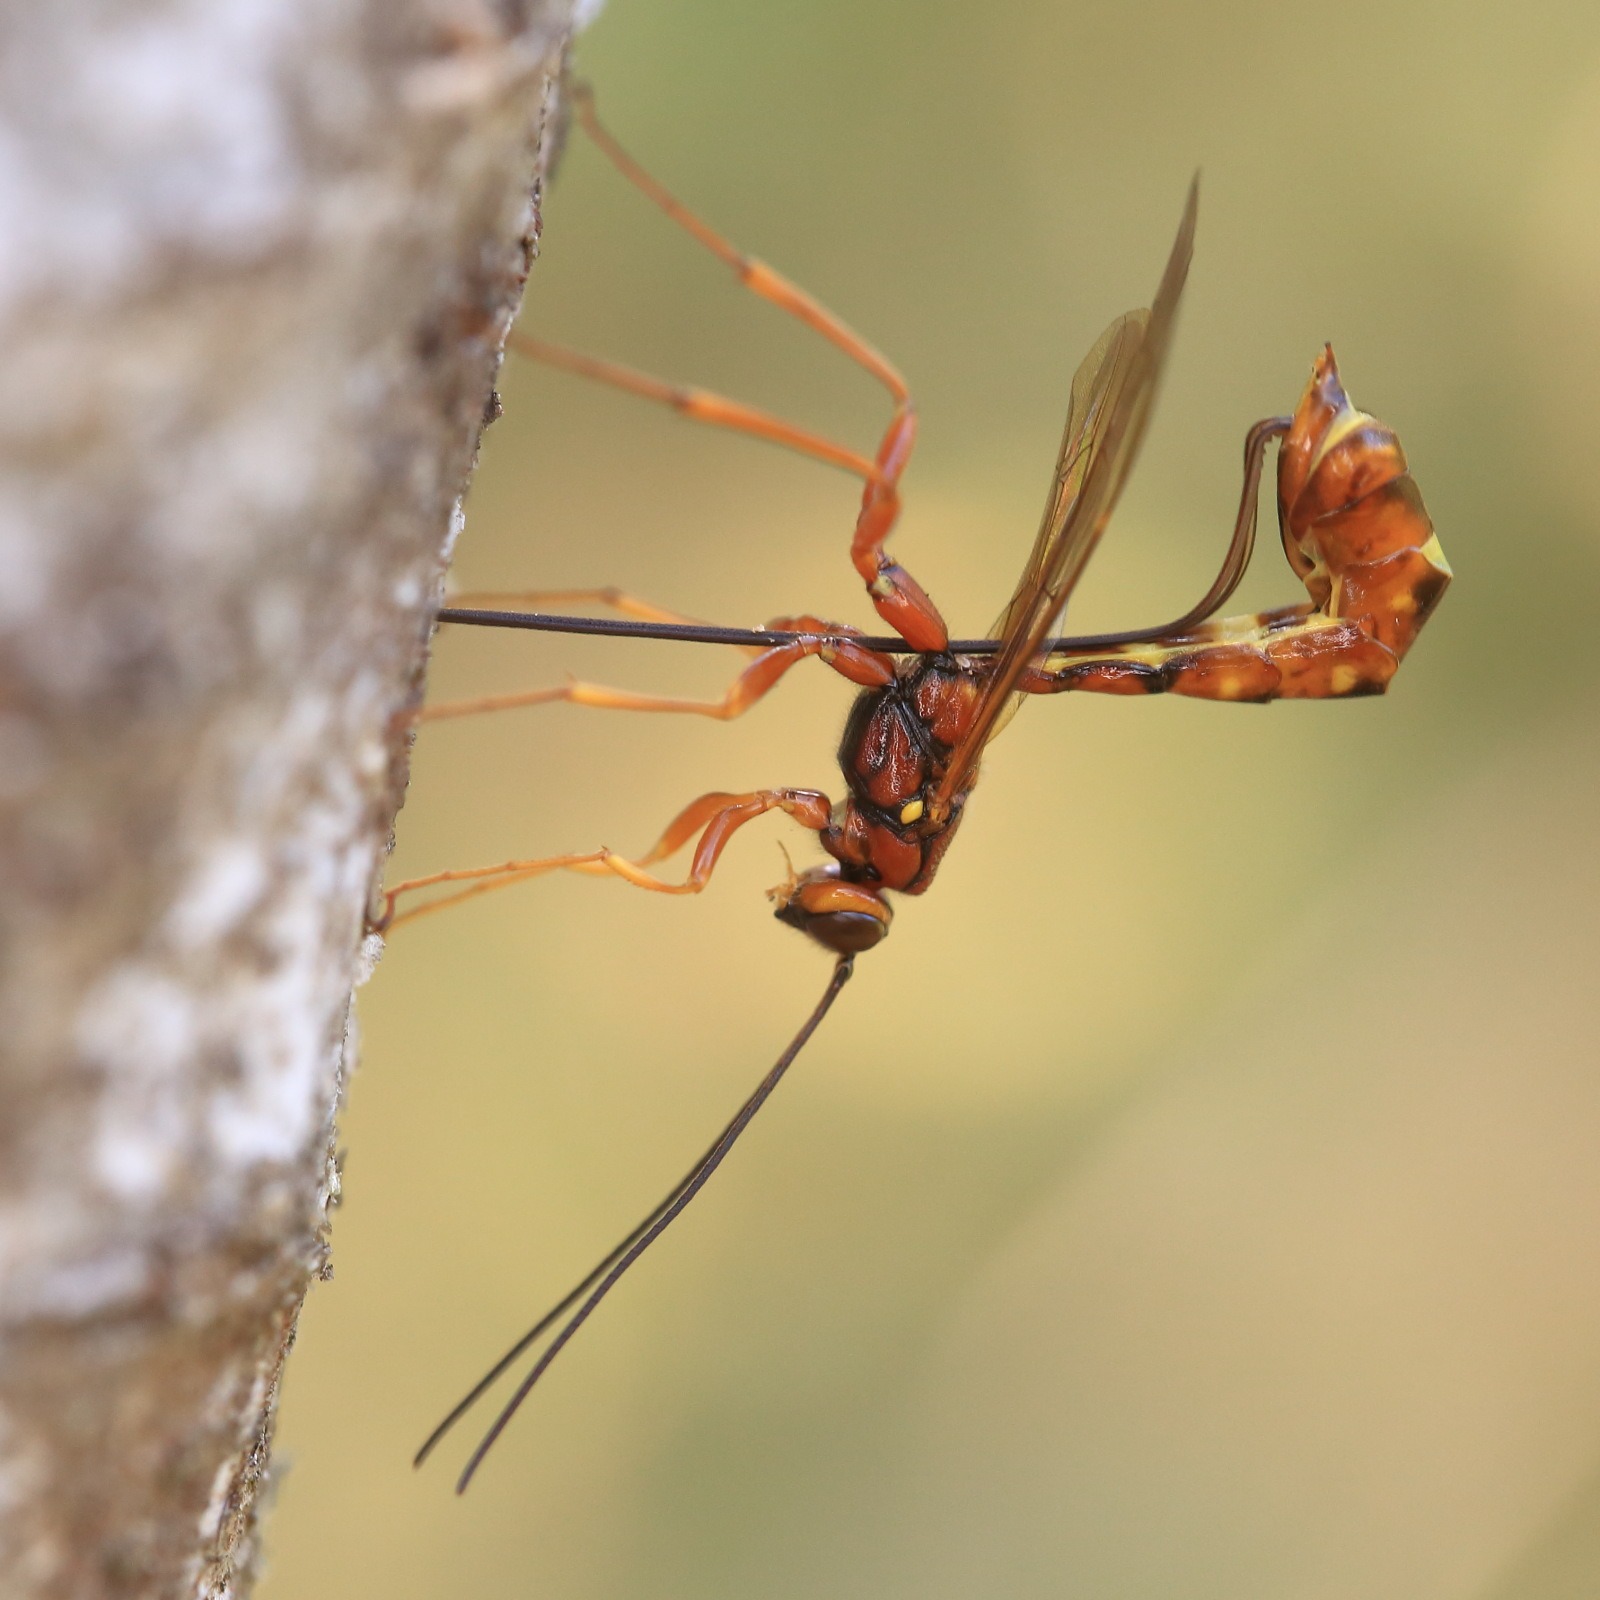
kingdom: Animalia
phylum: Arthropoda
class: Insecta
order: Hymenoptera
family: Ichneumonidae
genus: Megarhyssa
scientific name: Megarhyssa vagatoria
